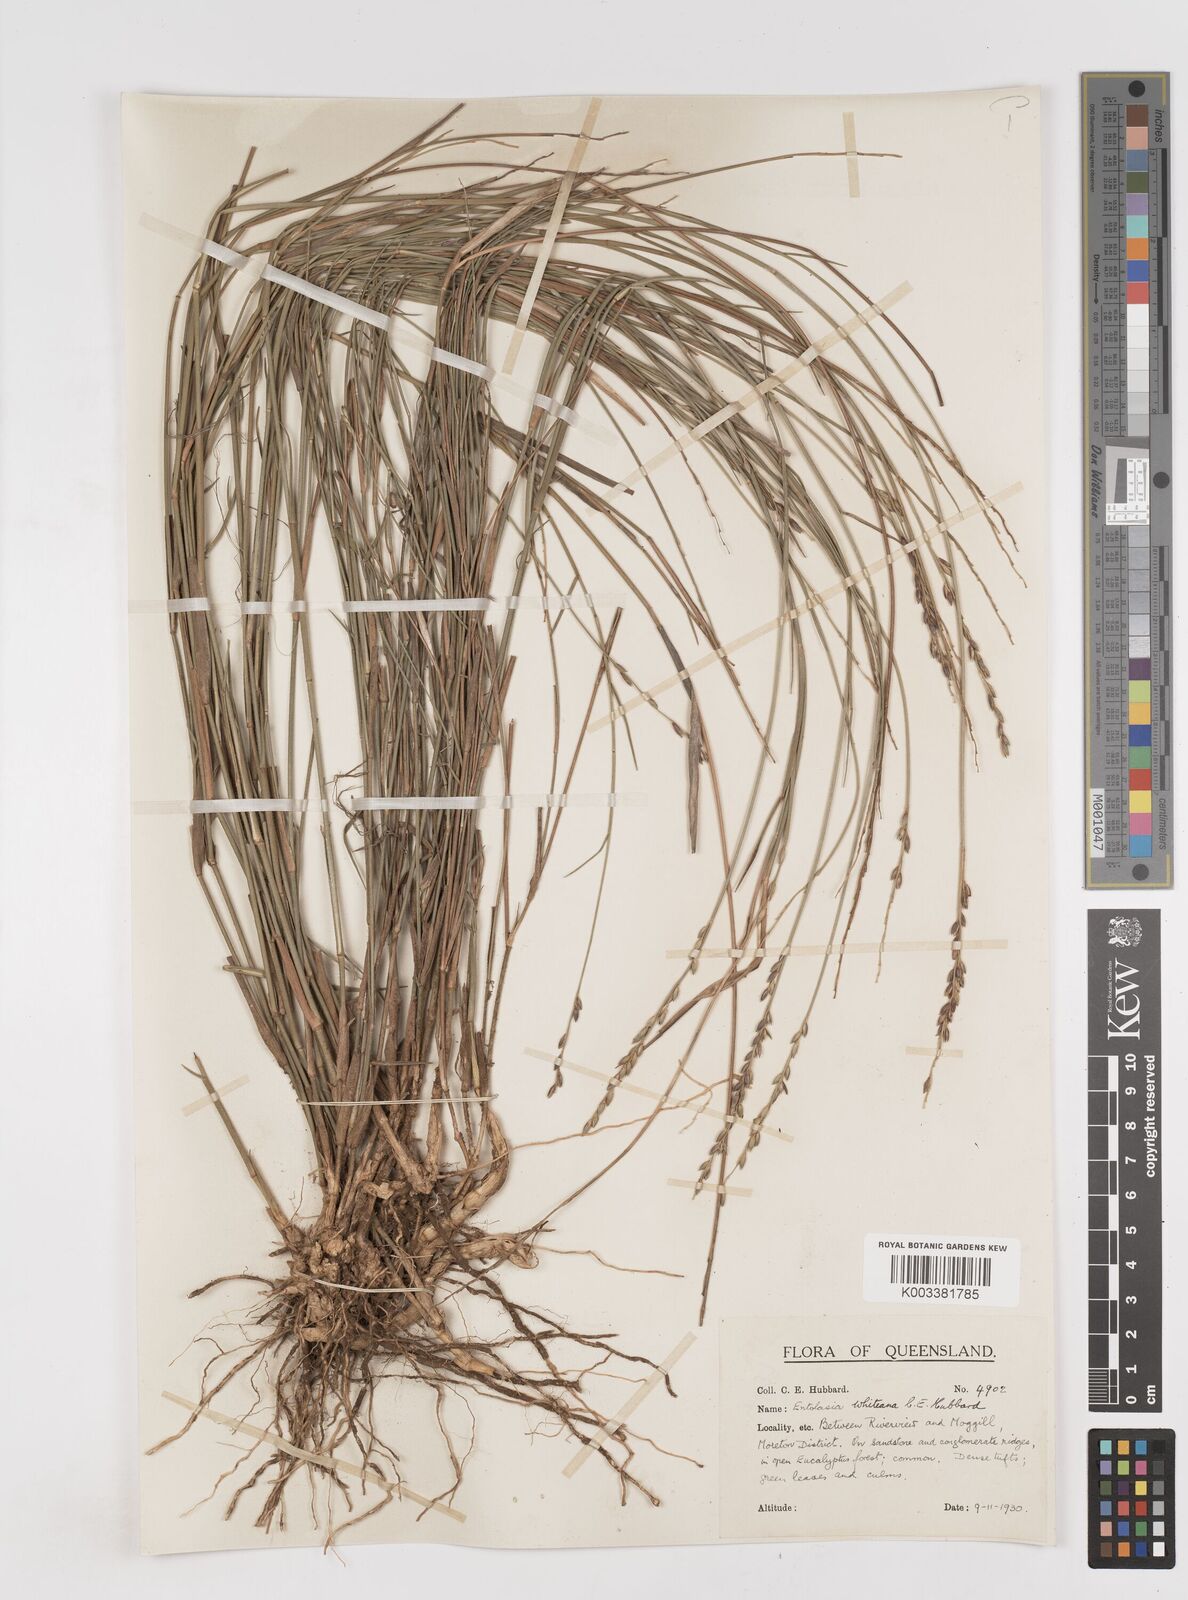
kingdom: Plantae
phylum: Tracheophyta
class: Liliopsida
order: Poales
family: Poaceae
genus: Entolasia
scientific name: Entolasia whiteana
